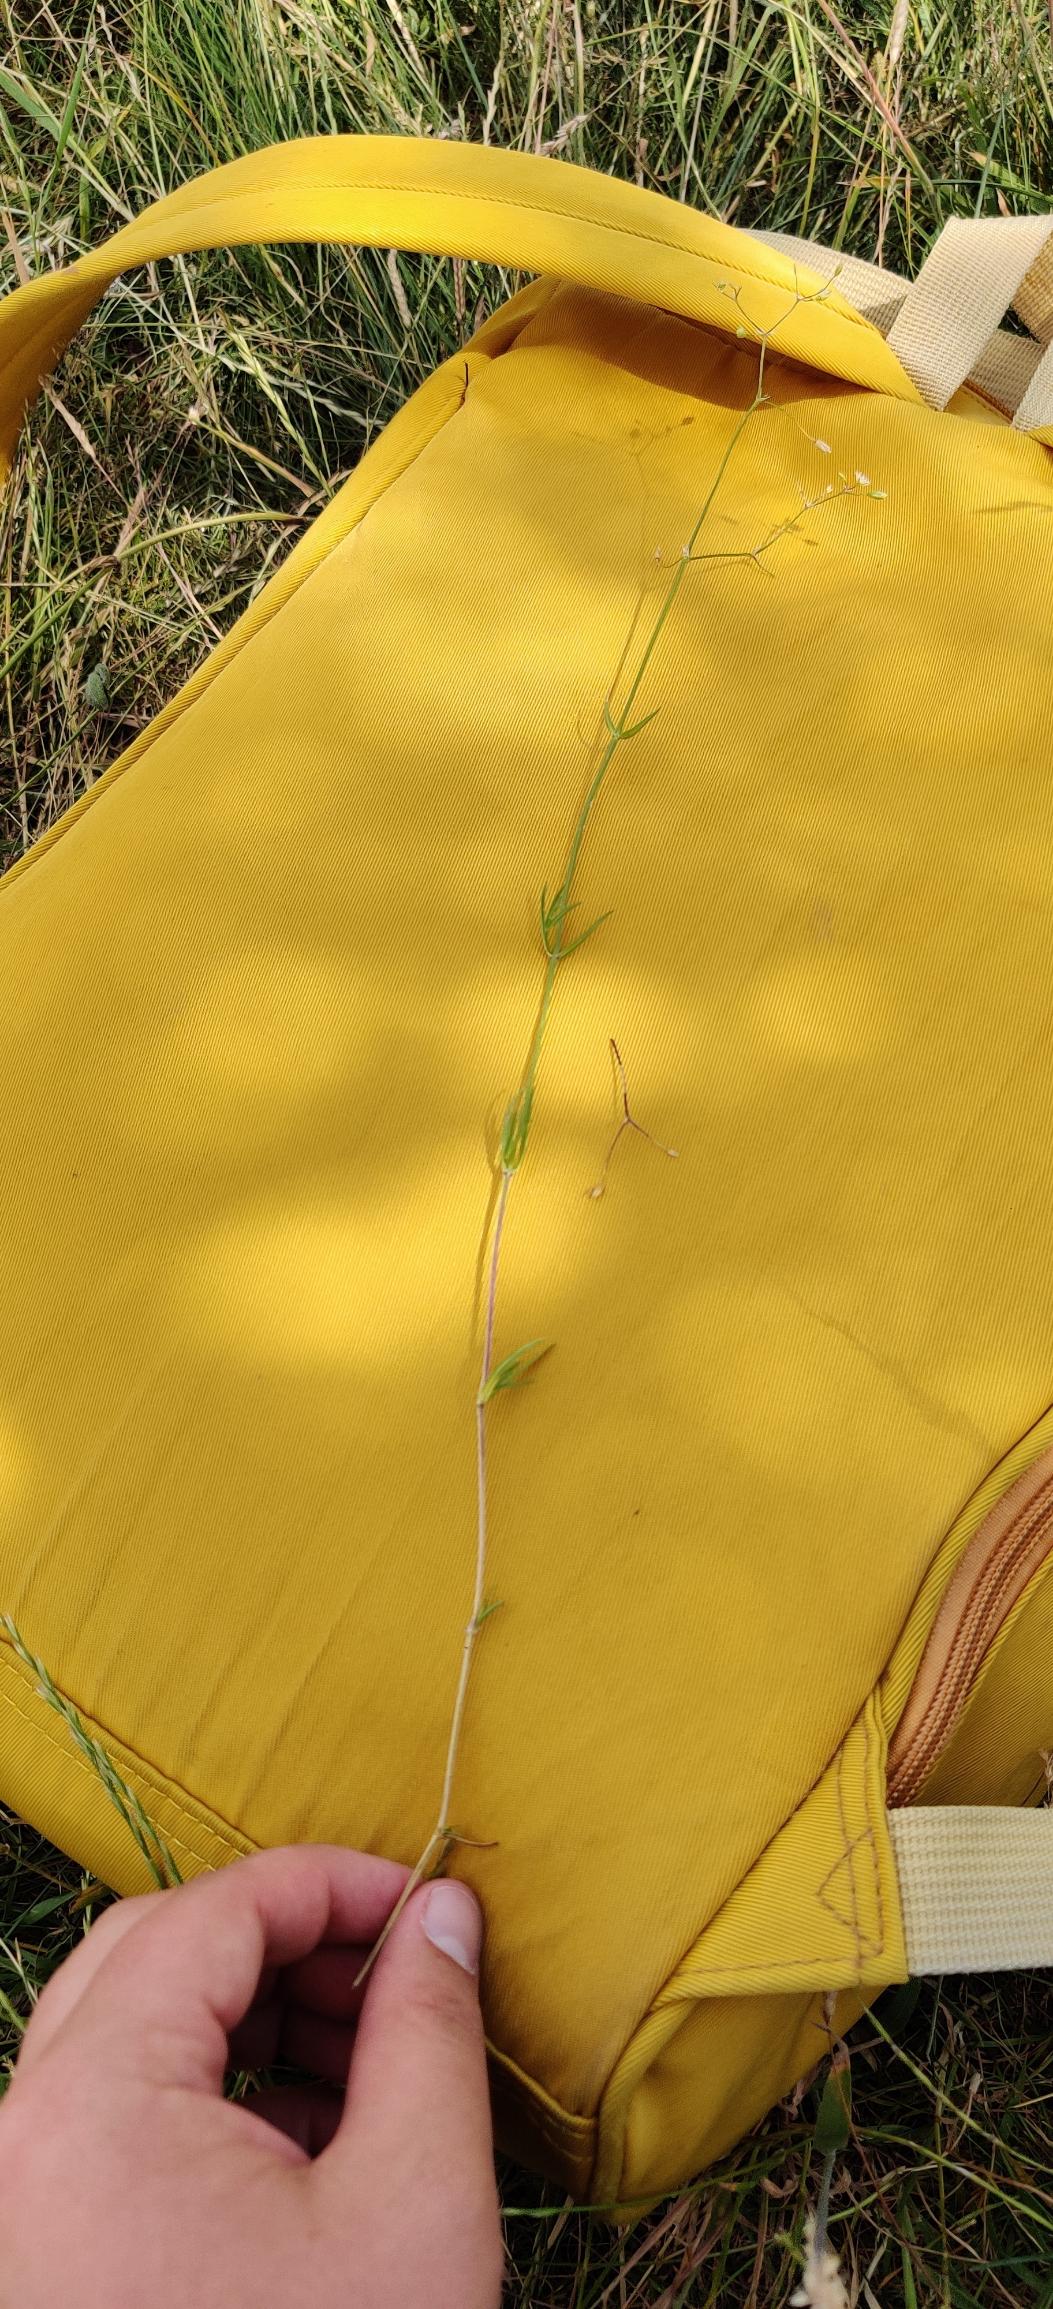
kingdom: Plantae
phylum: Tracheophyta
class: Magnoliopsida
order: Caryophyllales
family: Caryophyllaceae
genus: Stellaria
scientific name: Stellaria graminea
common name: Græsbladet fladstjerne
